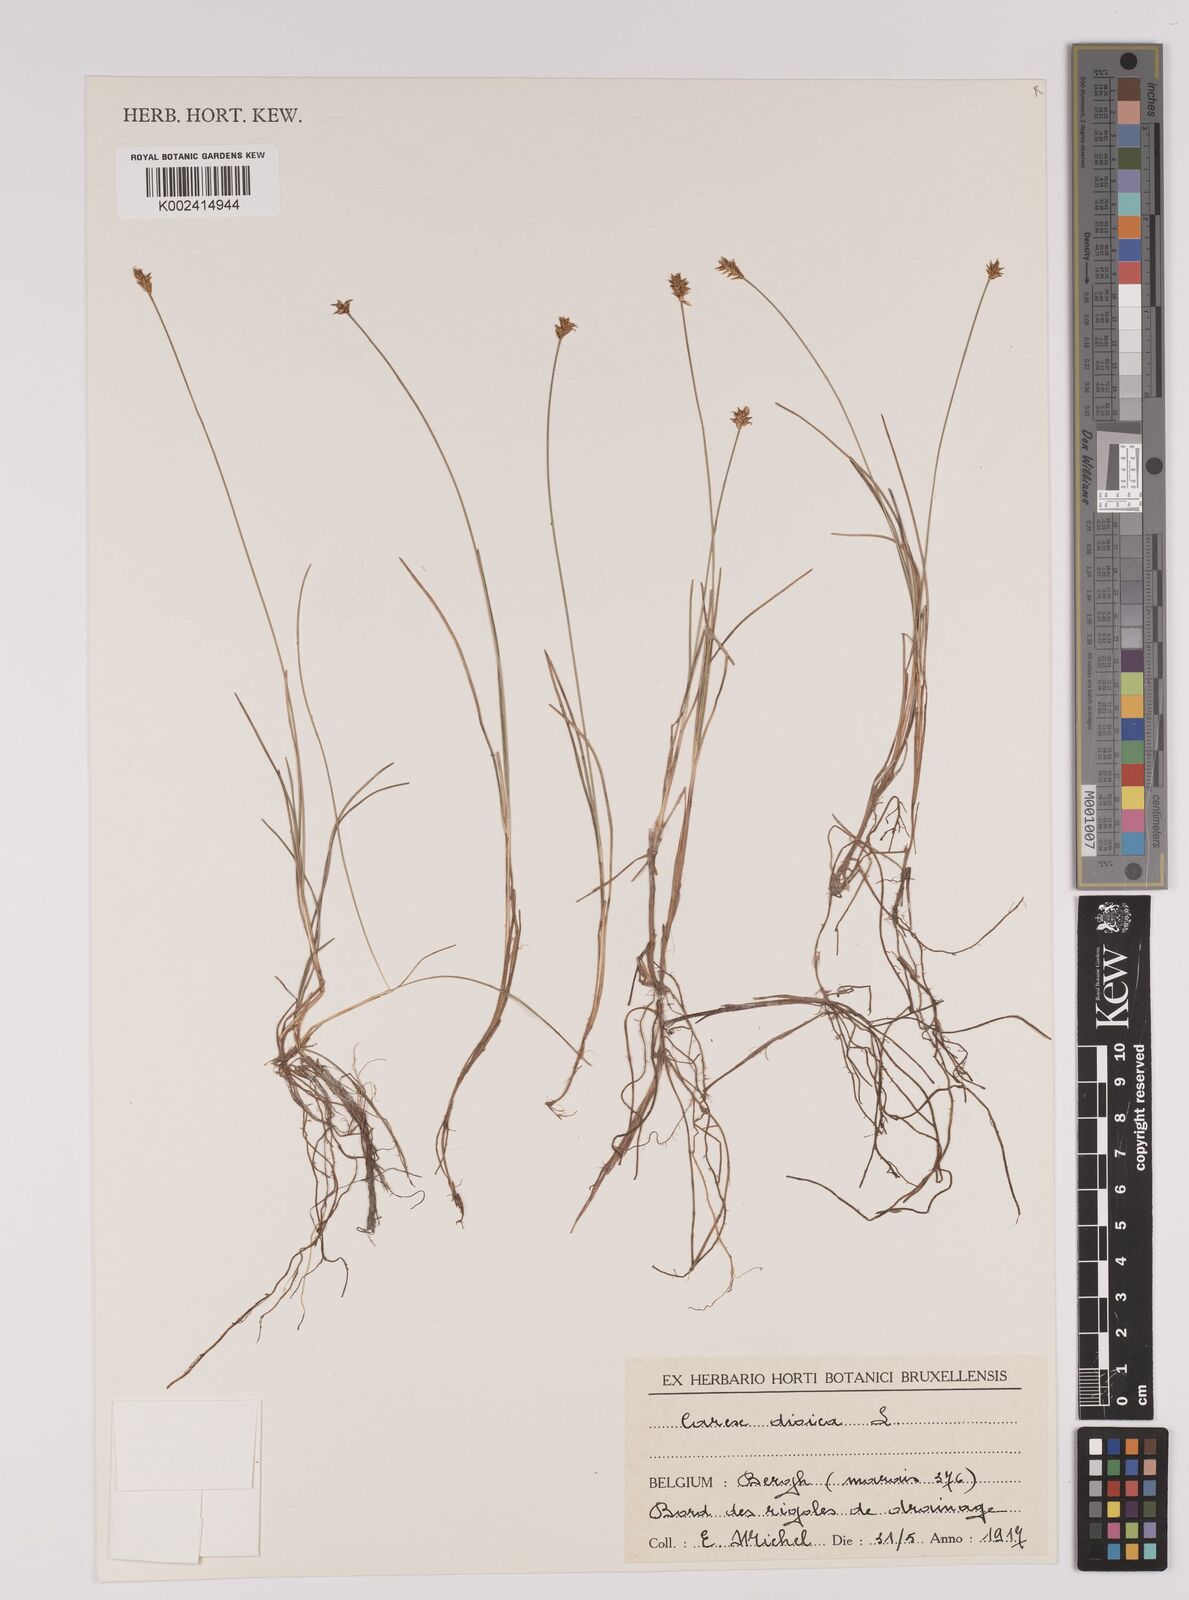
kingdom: Plantae
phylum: Tracheophyta
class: Liliopsida
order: Poales
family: Cyperaceae
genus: Carex
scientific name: Carex dioica
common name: Dioecious sedge
